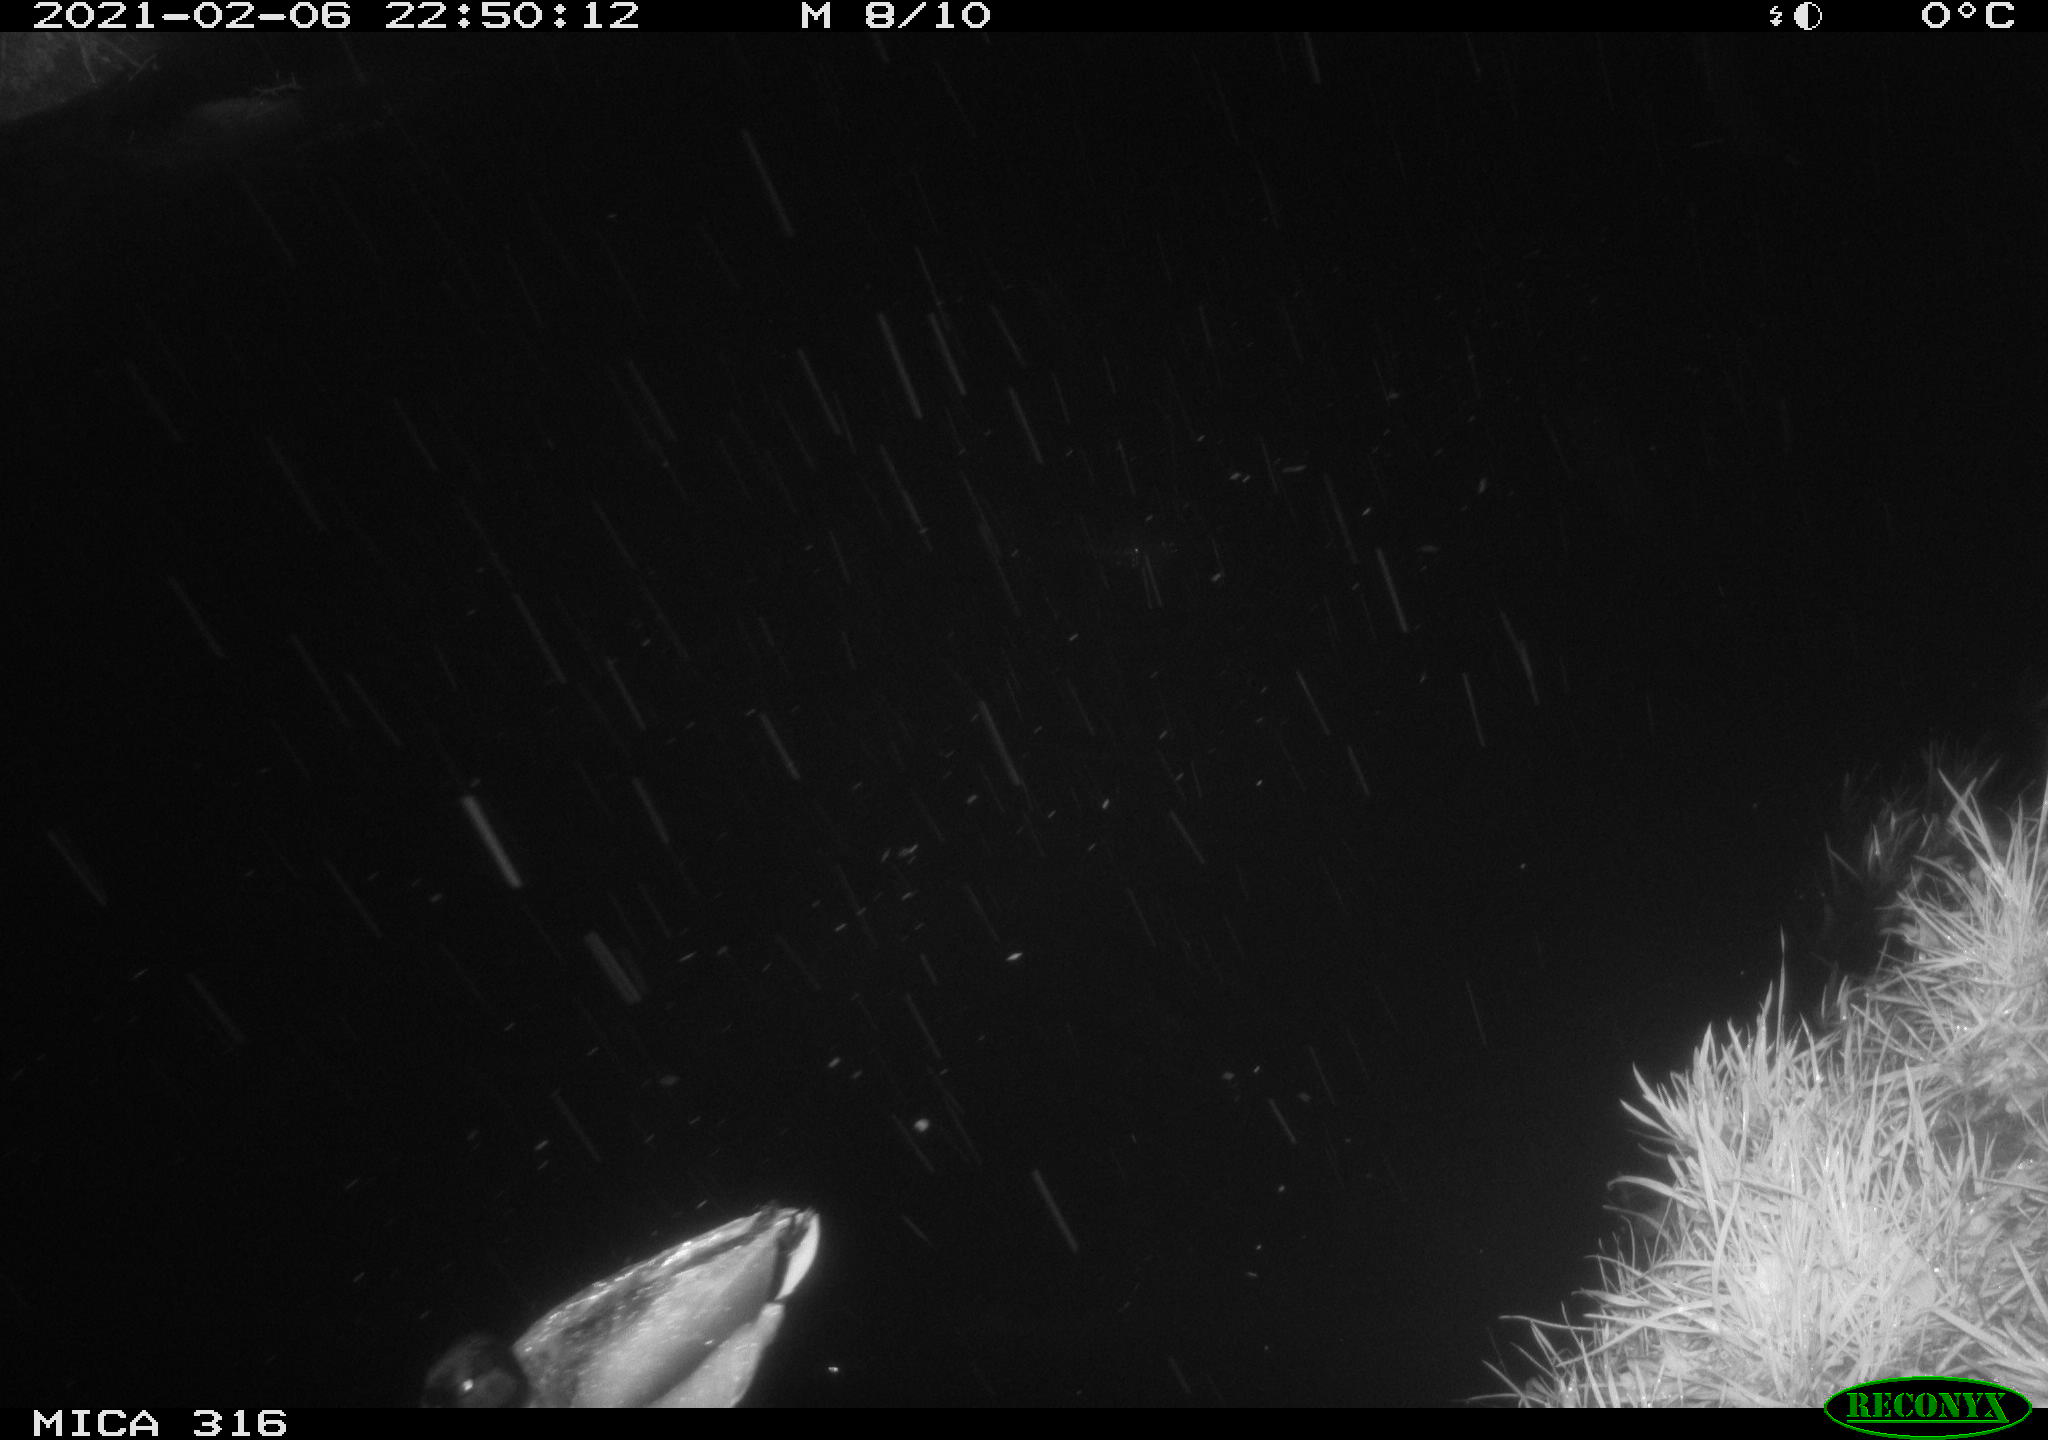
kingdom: Animalia
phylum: Chordata
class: Aves
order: Anseriformes
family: Anatidae
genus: Anas
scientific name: Anas platyrhynchos
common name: Mallard
